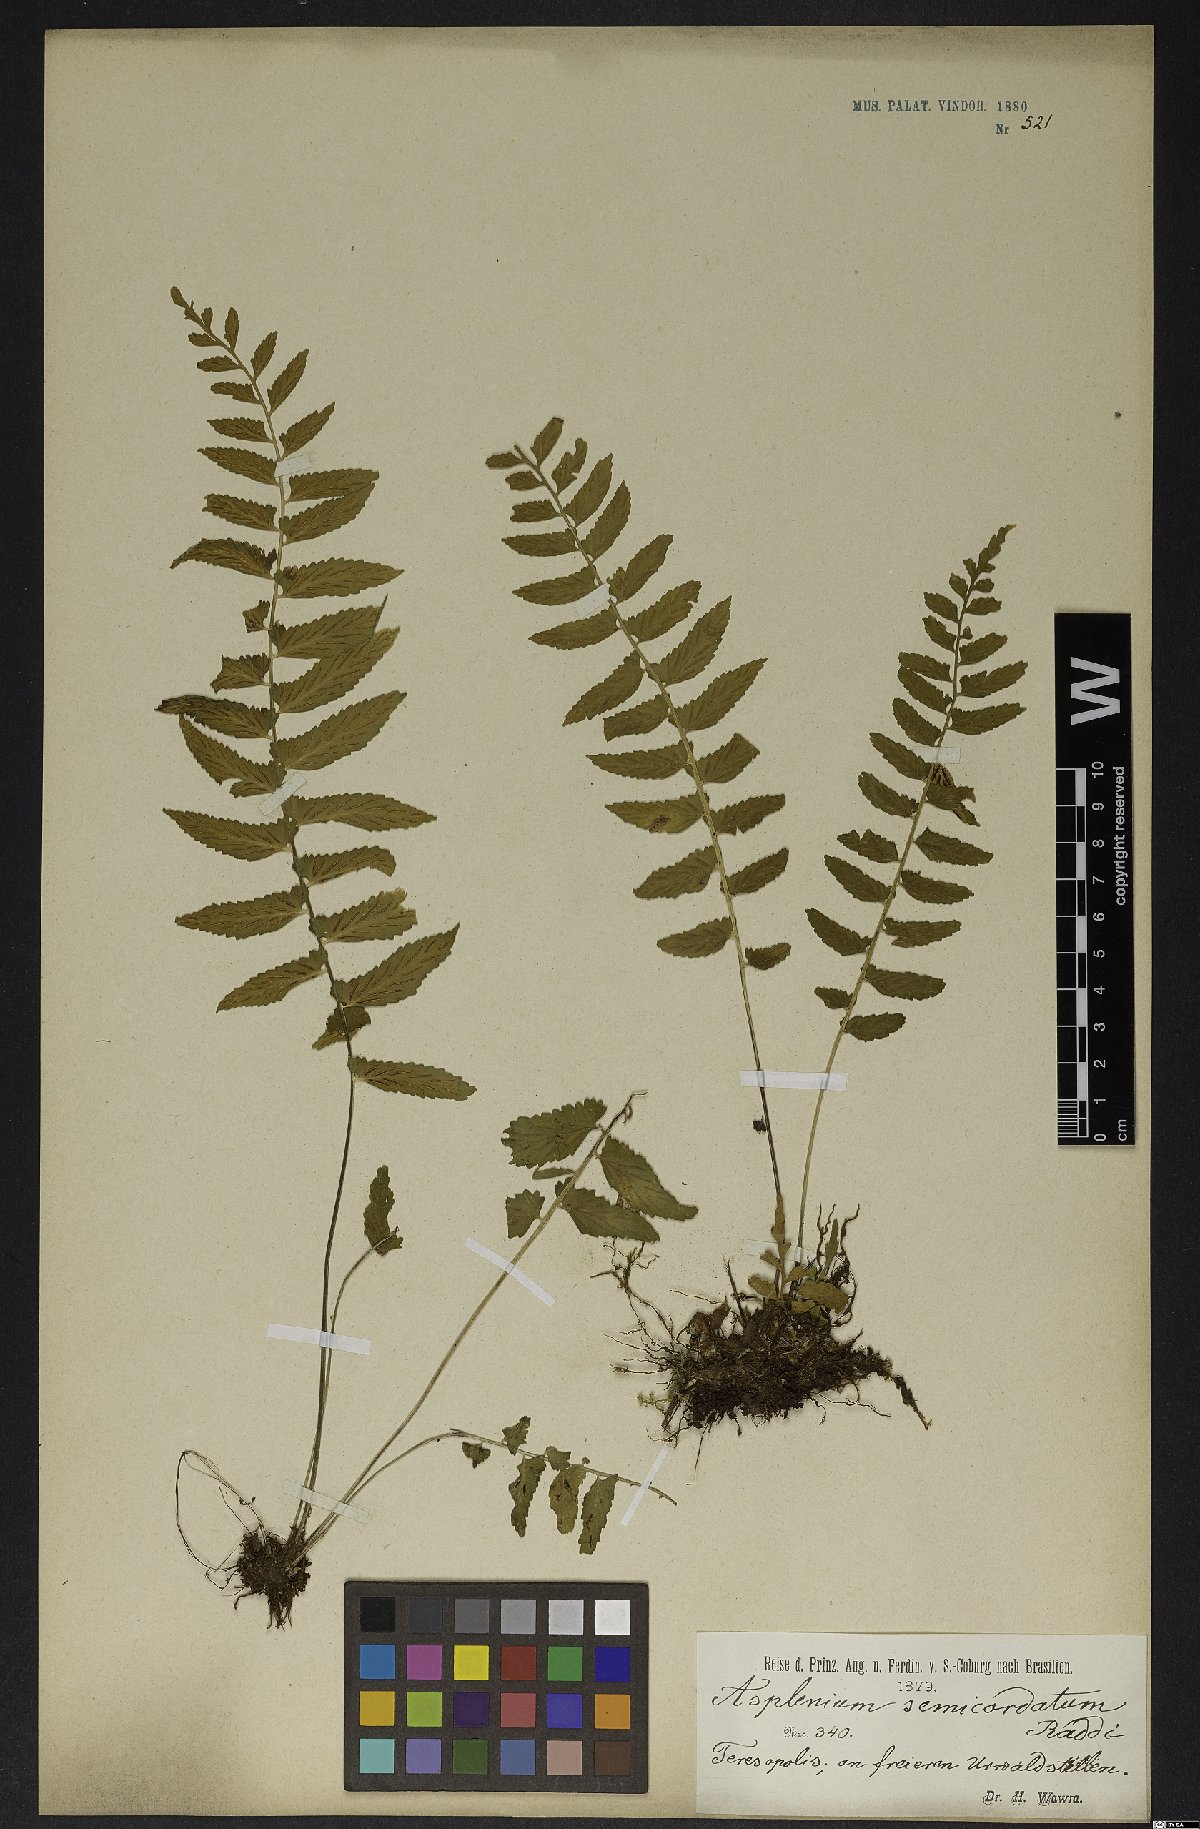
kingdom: Plantae
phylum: Tracheophyta
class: Polypodiopsida
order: Polypodiales
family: Aspleniaceae
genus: Asplenium
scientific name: Asplenium auriculatum
